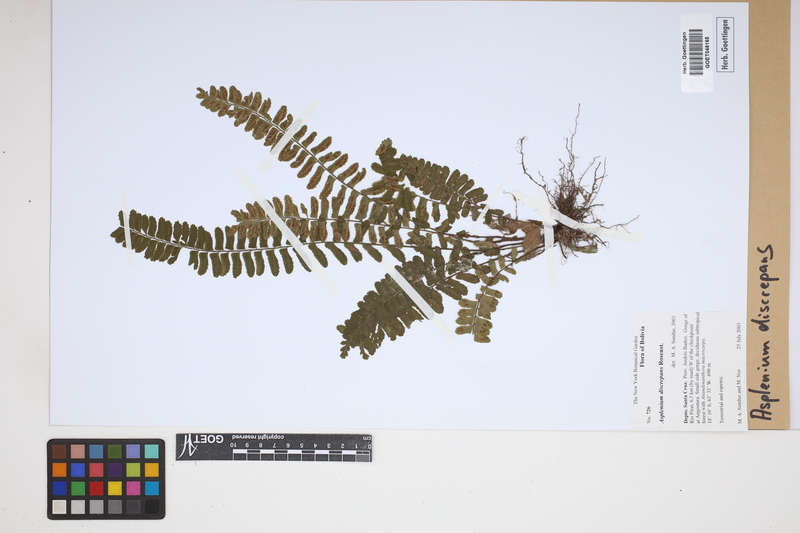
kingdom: Plantae
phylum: Tracheophyta
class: Polypodiopsida
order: Polypodiales
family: Aspleniaceae
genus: Asplenium
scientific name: Asplenium discrepans
